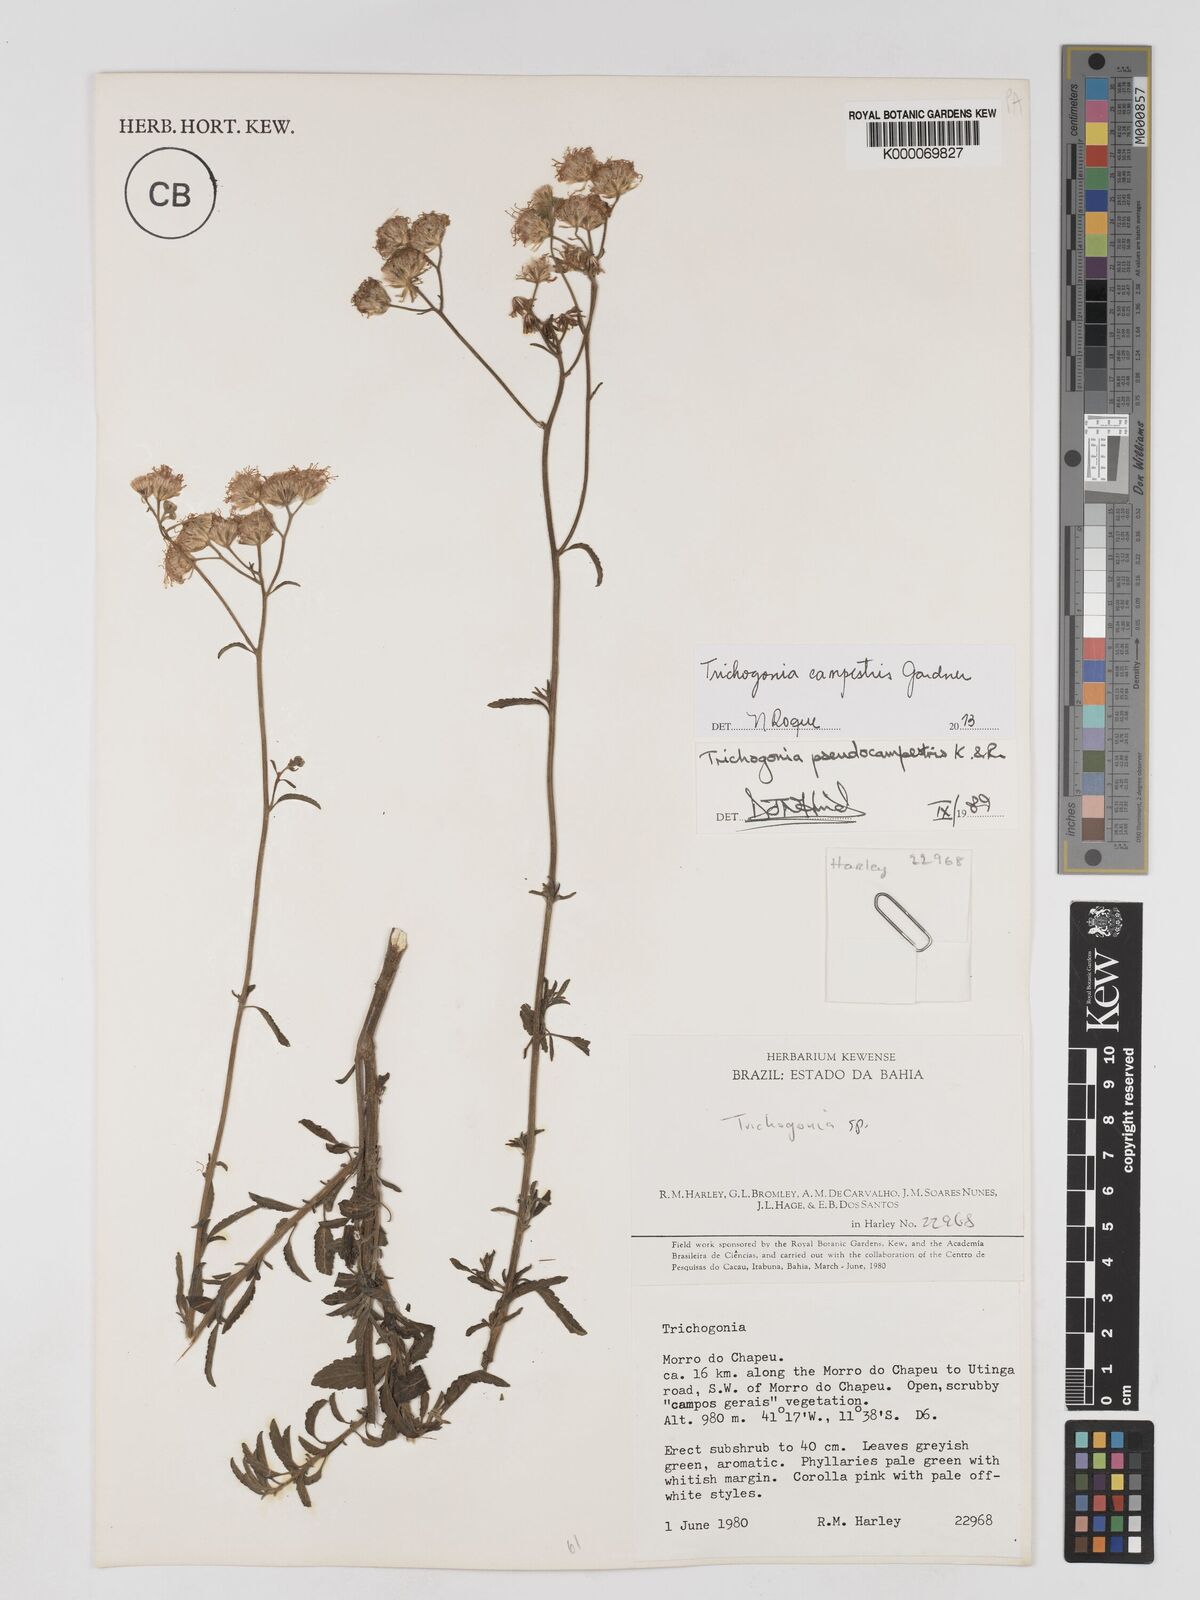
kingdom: Plantae
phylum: Tracheophyta
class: Magnoliopsida
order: Asterales
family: Asteraceae
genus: Trichogonia
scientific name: Trichogonia campestris
